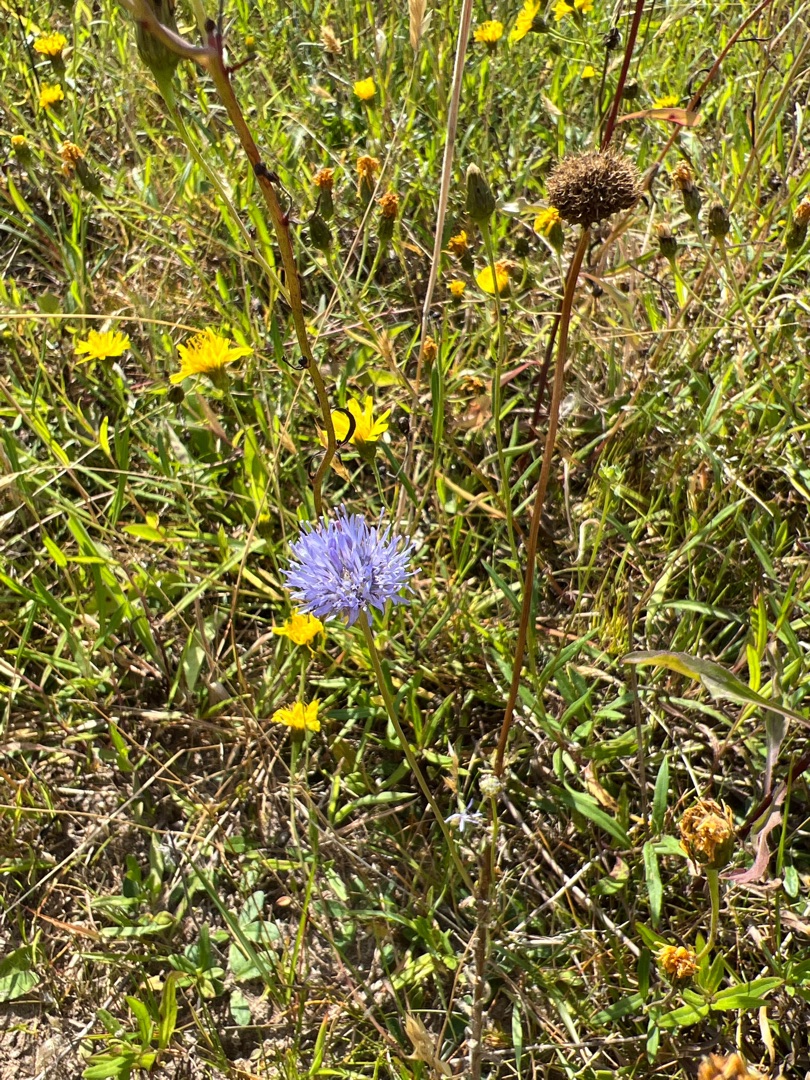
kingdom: Plantae
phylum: Tracheophyta
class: Magnoliopsida
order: Asterales
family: Campanulaceae
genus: Jasione
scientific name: Jasione montana
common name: Blåmunke
